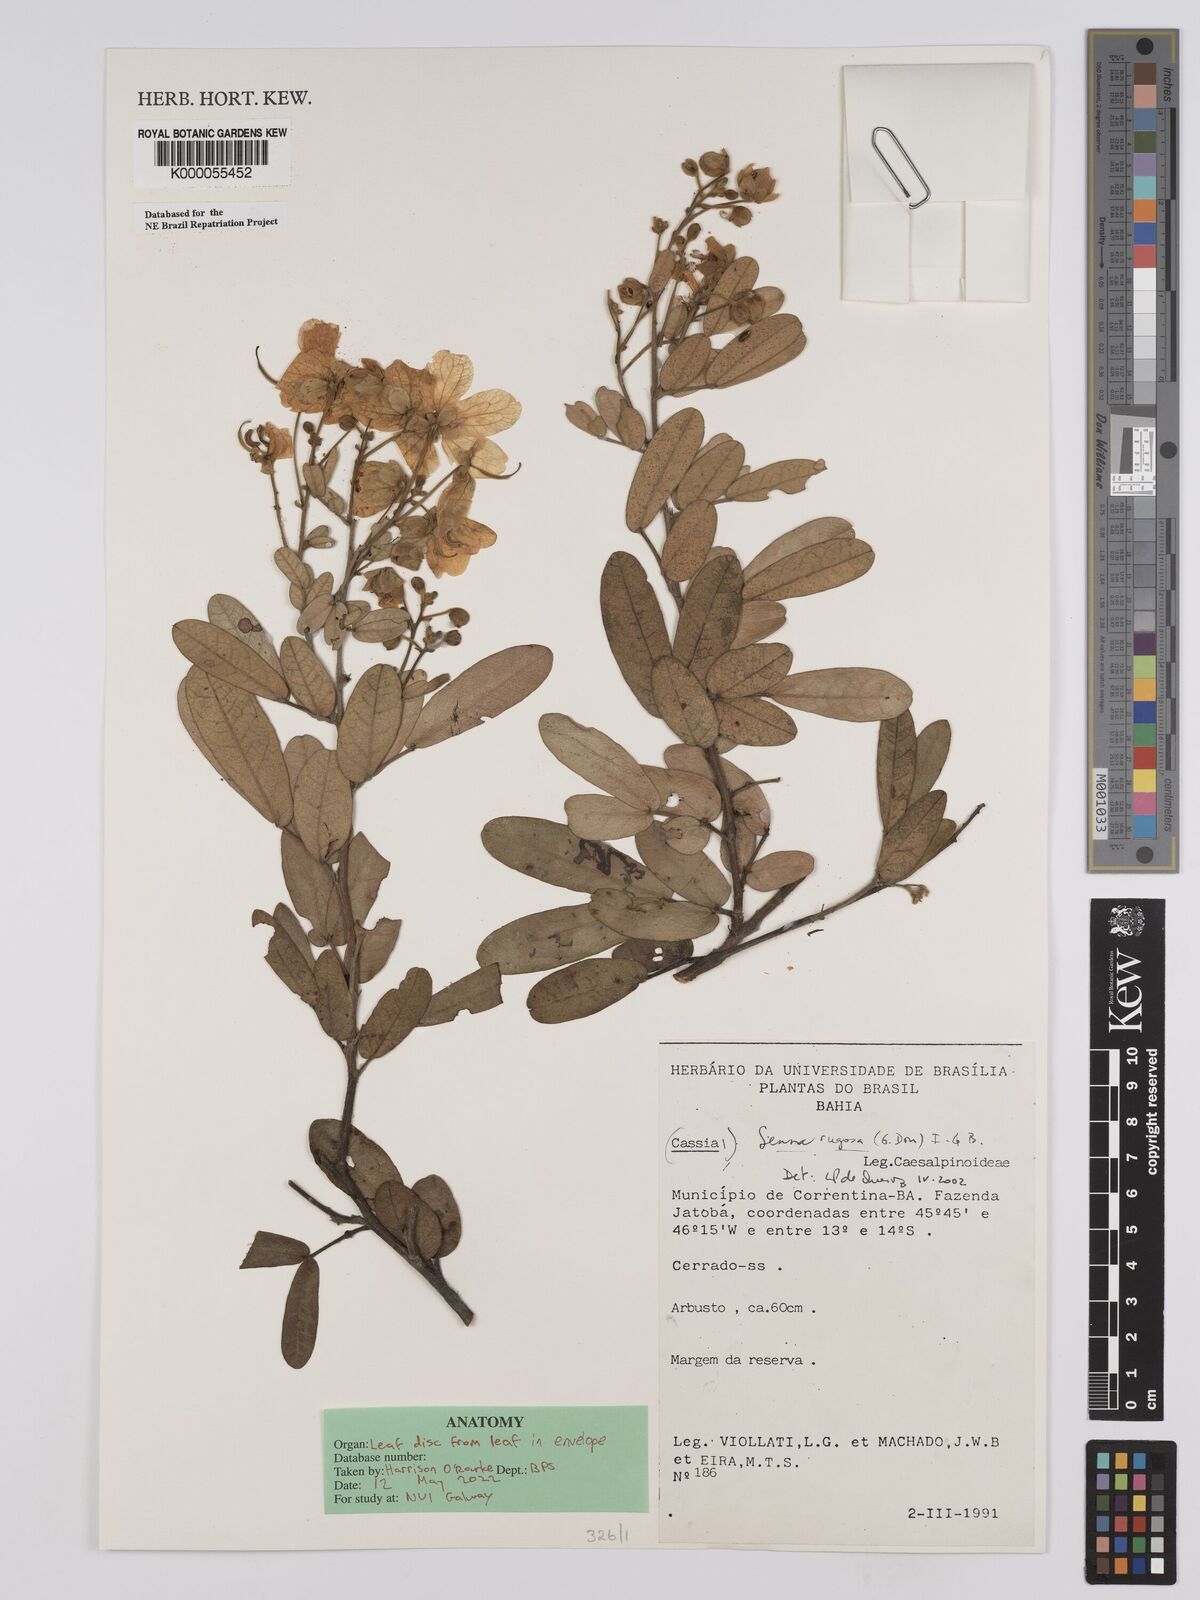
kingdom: Plantae
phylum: Tracheophyta
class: Magnoliopsida
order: Fabales
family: Fabaceae
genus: Senna
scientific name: Senna rugosa
